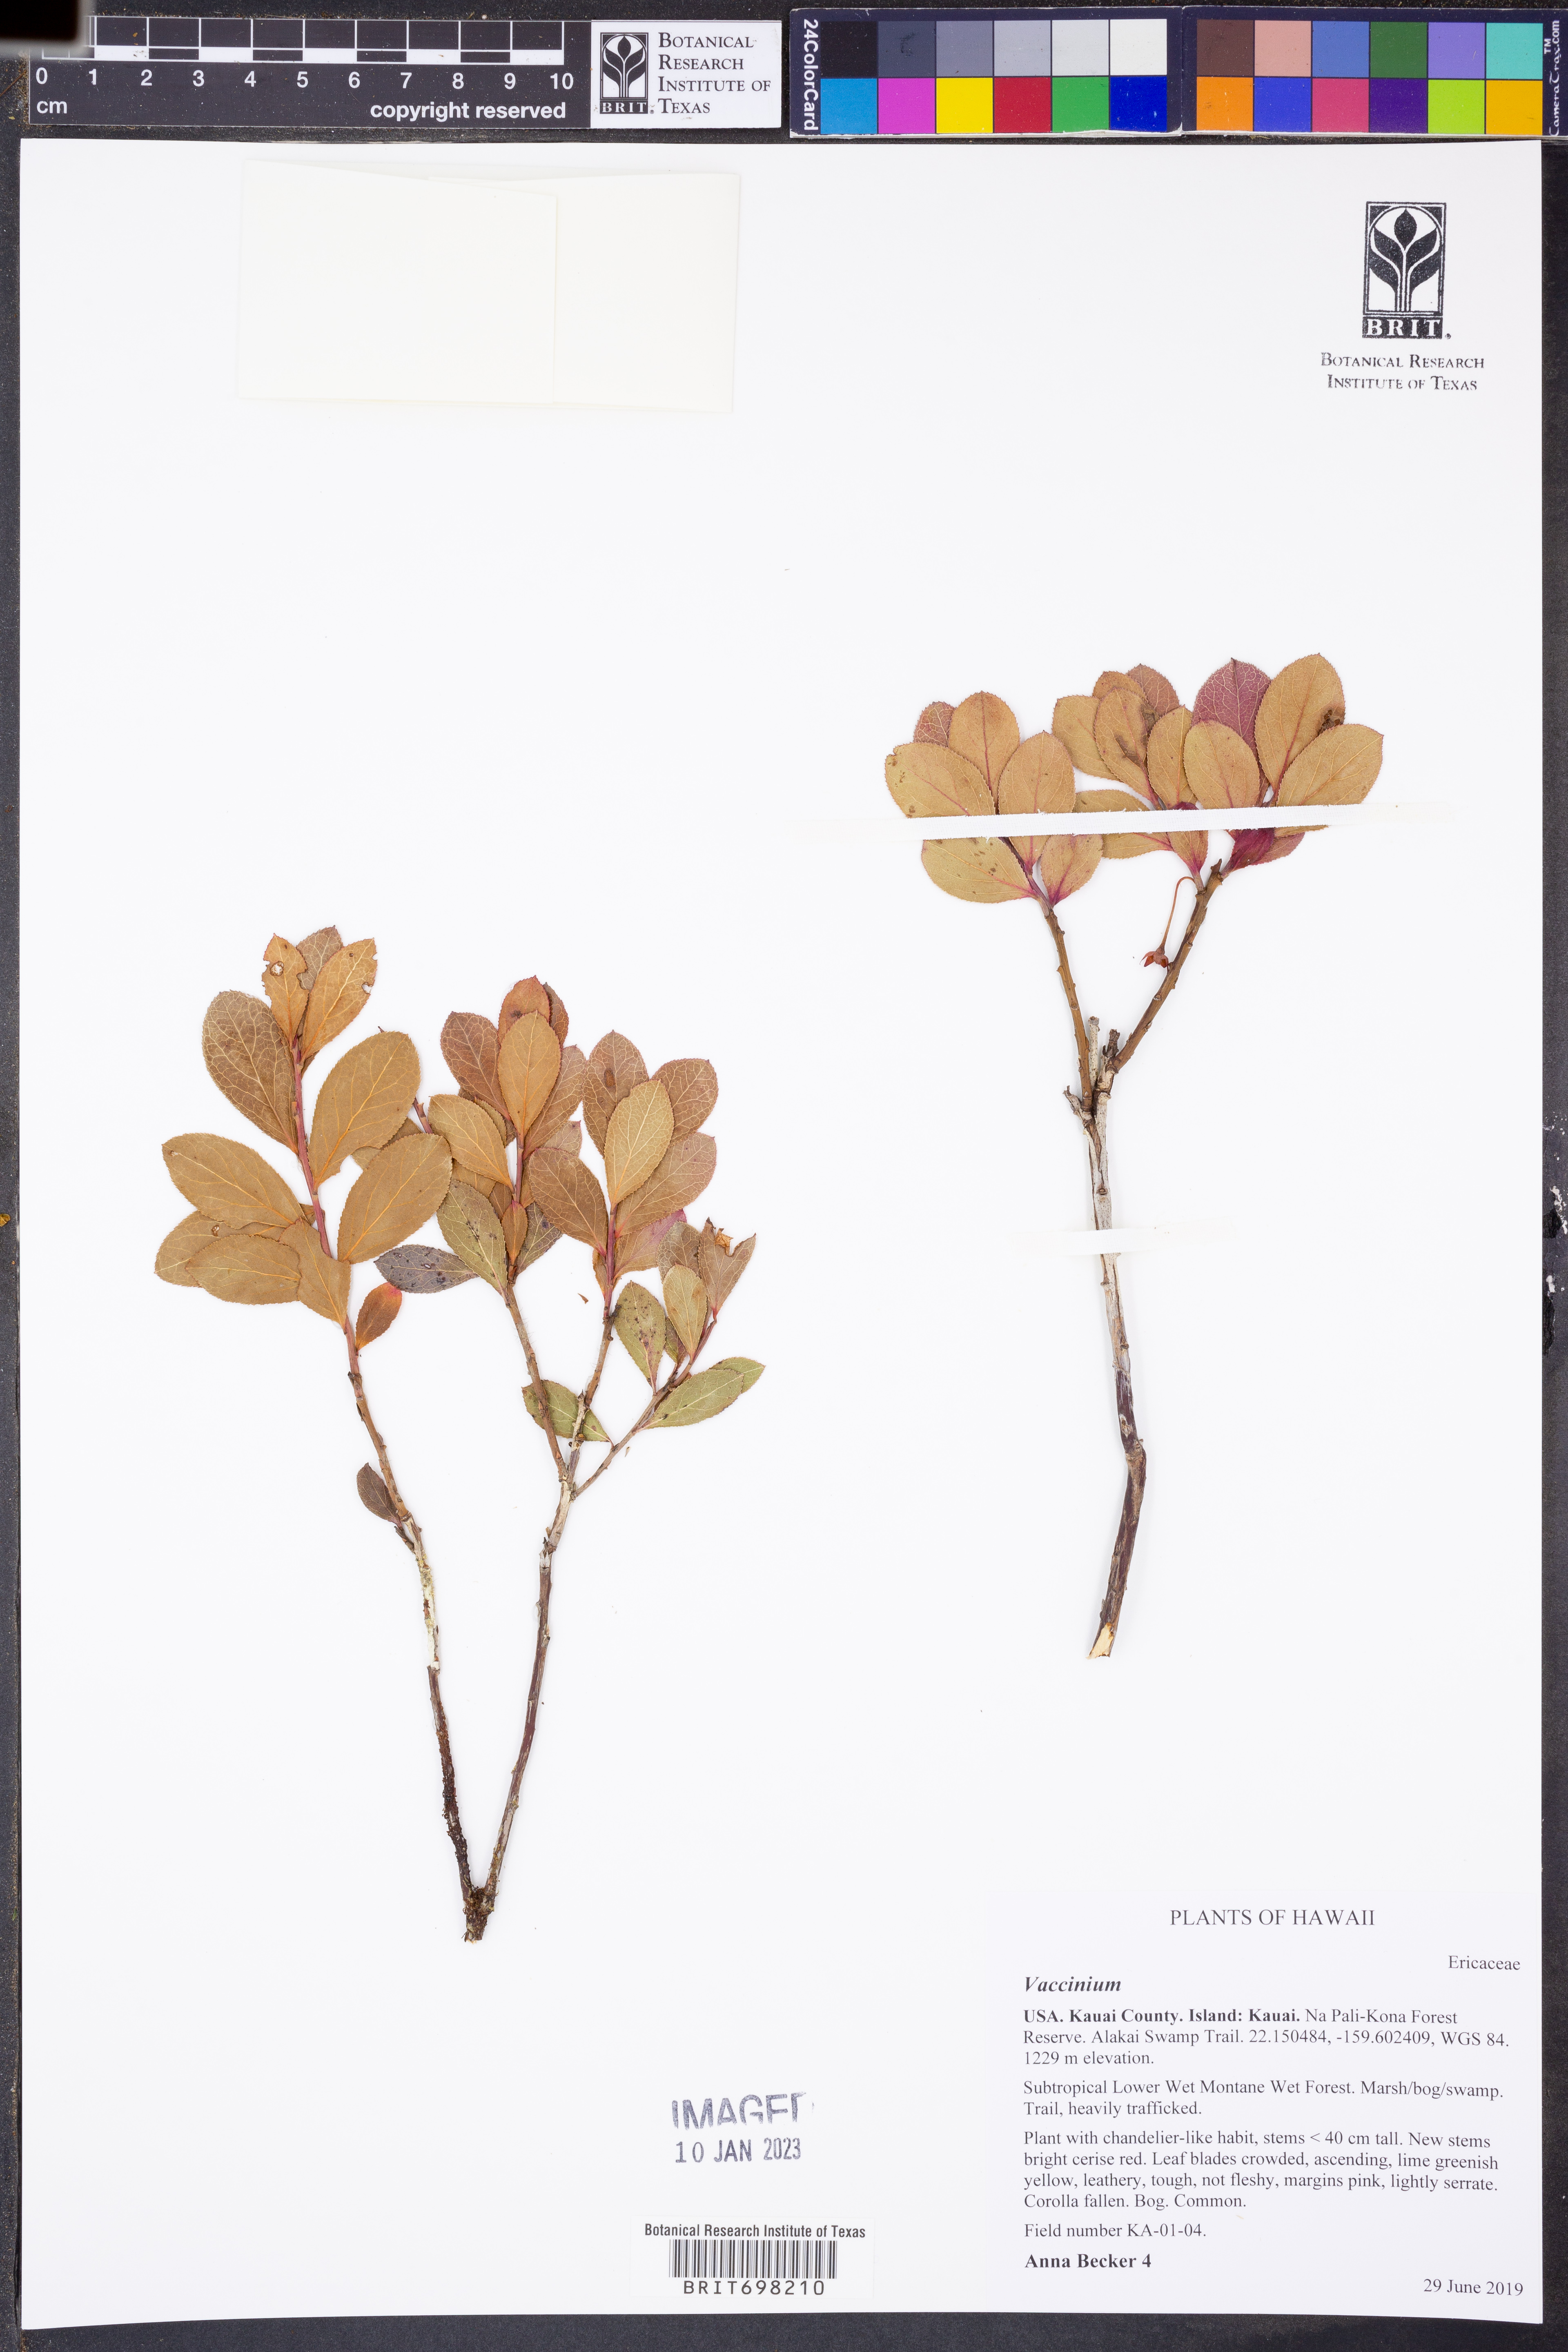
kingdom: Plantae
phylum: Tracheophyta
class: Magnoliopsida
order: Ericales
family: Ericaceae
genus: Vaccinium
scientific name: Vaccinium
